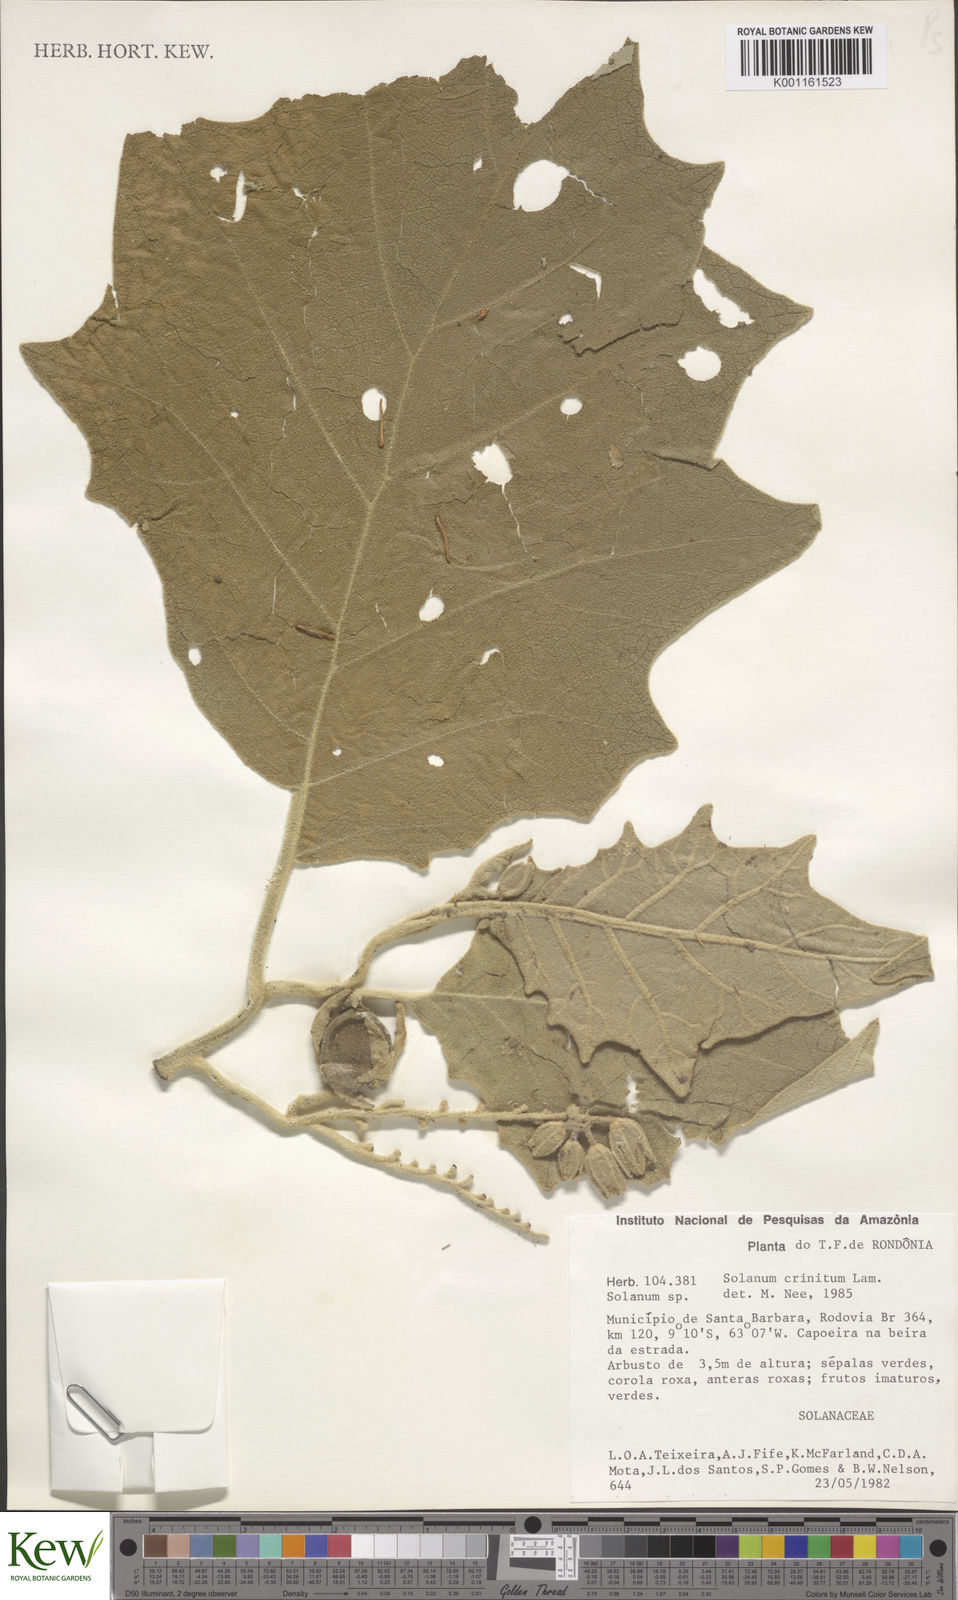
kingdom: Plantae
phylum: Tracheophyta
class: Magnoliopsida
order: Solanales
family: Solanaceae
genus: Solanum
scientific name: Solanum crinitum
